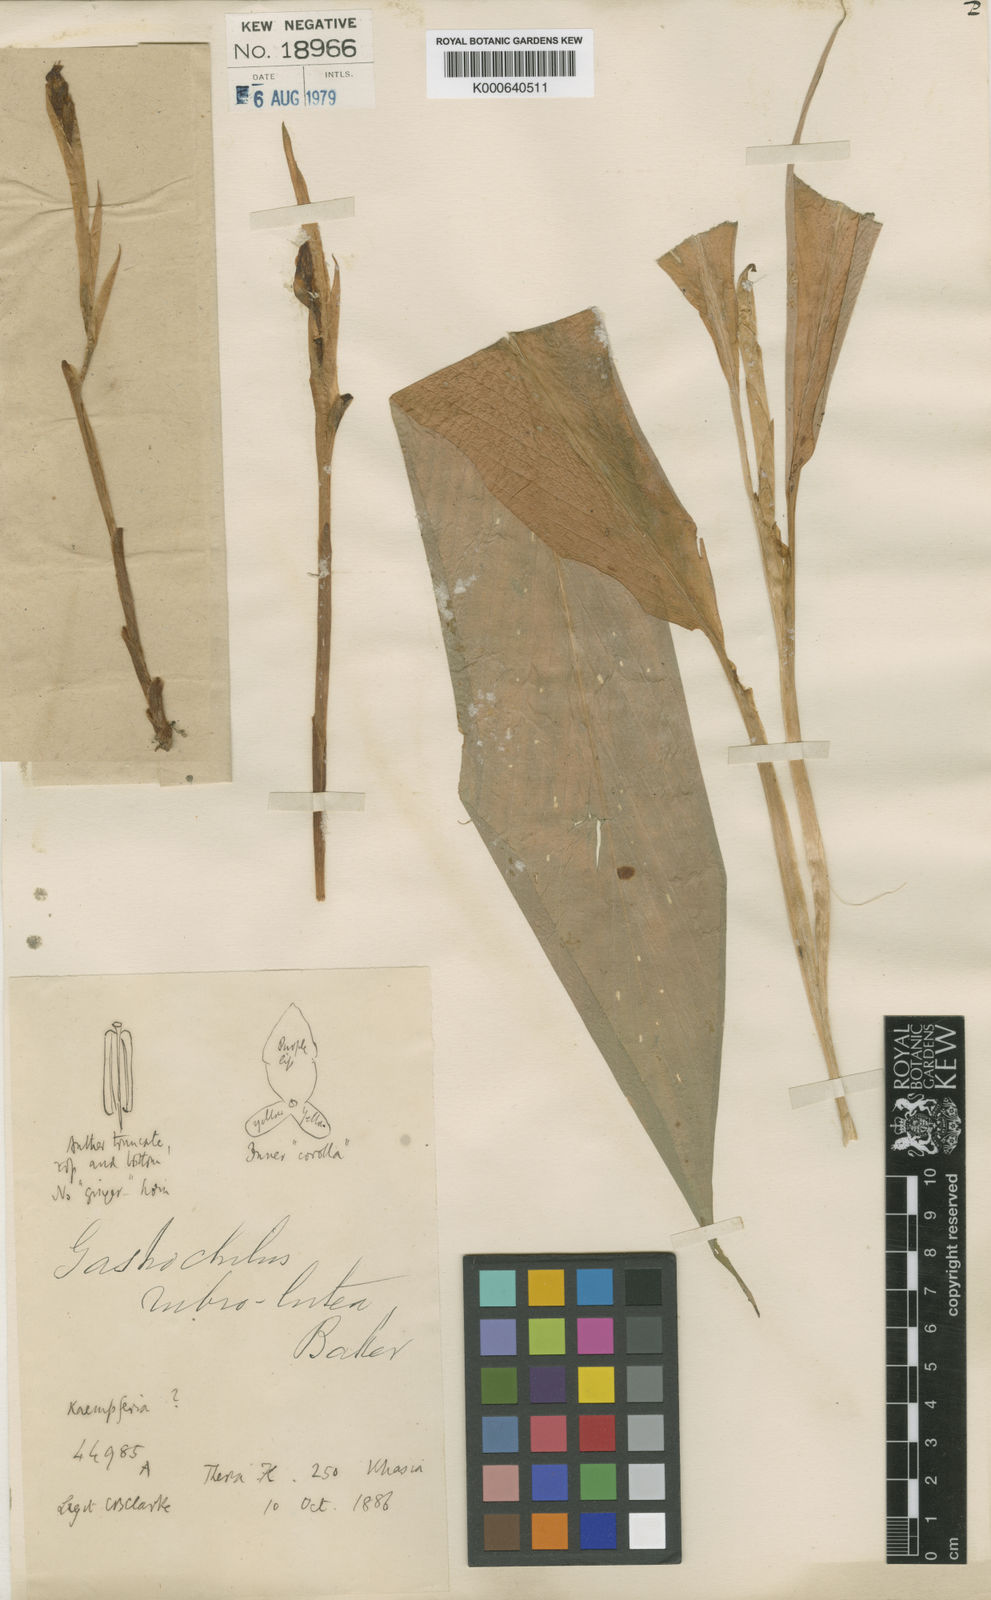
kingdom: Plantae
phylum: Tracheophyta
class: Liliopsida
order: Zingiberales
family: Zingiberaceae
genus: Boesenbergia
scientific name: Boesenbergia rubrolutea
